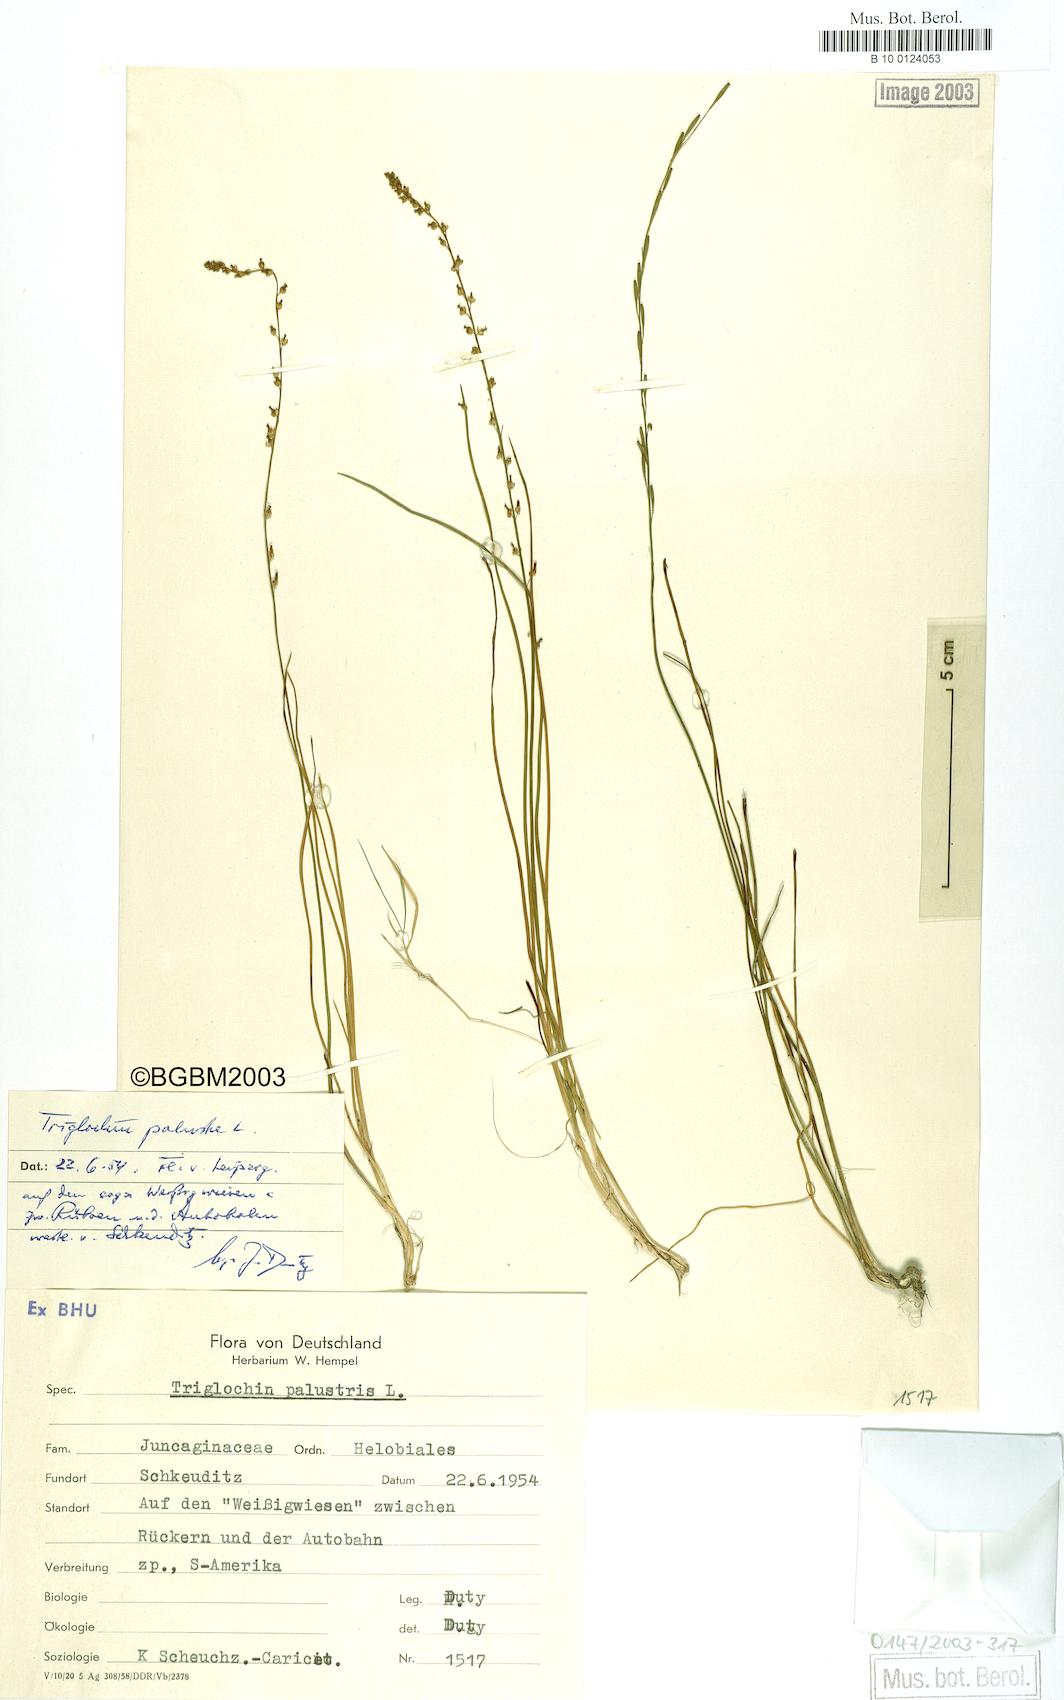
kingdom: Plantae
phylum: Tracheophyta
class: Liliopsida
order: Alismatales
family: Juncaginaceae
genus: Triglochin
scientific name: Triglochin palustris
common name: Marsh arrowgrass
